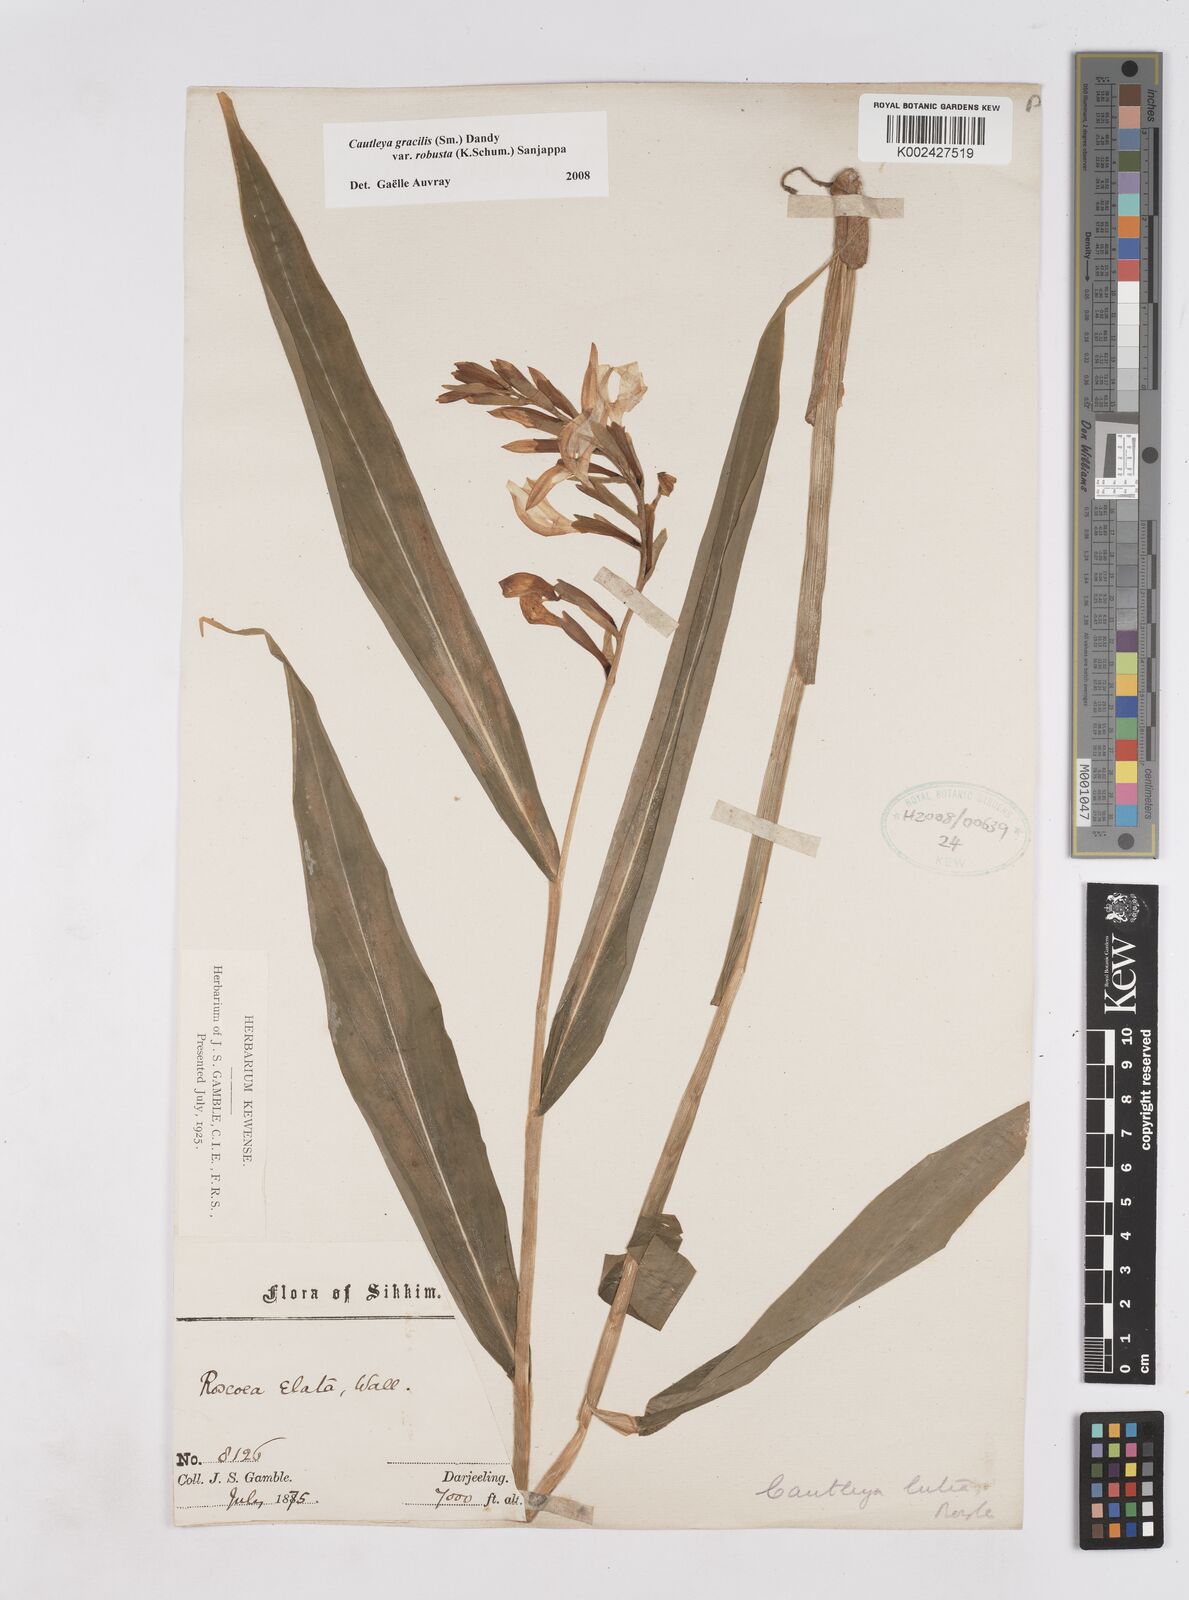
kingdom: Plantae
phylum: Tracheophyta
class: Liliopsida
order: Zingiberales
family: Zingiberaceae
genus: Cautleya
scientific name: Cautleya gracilis
